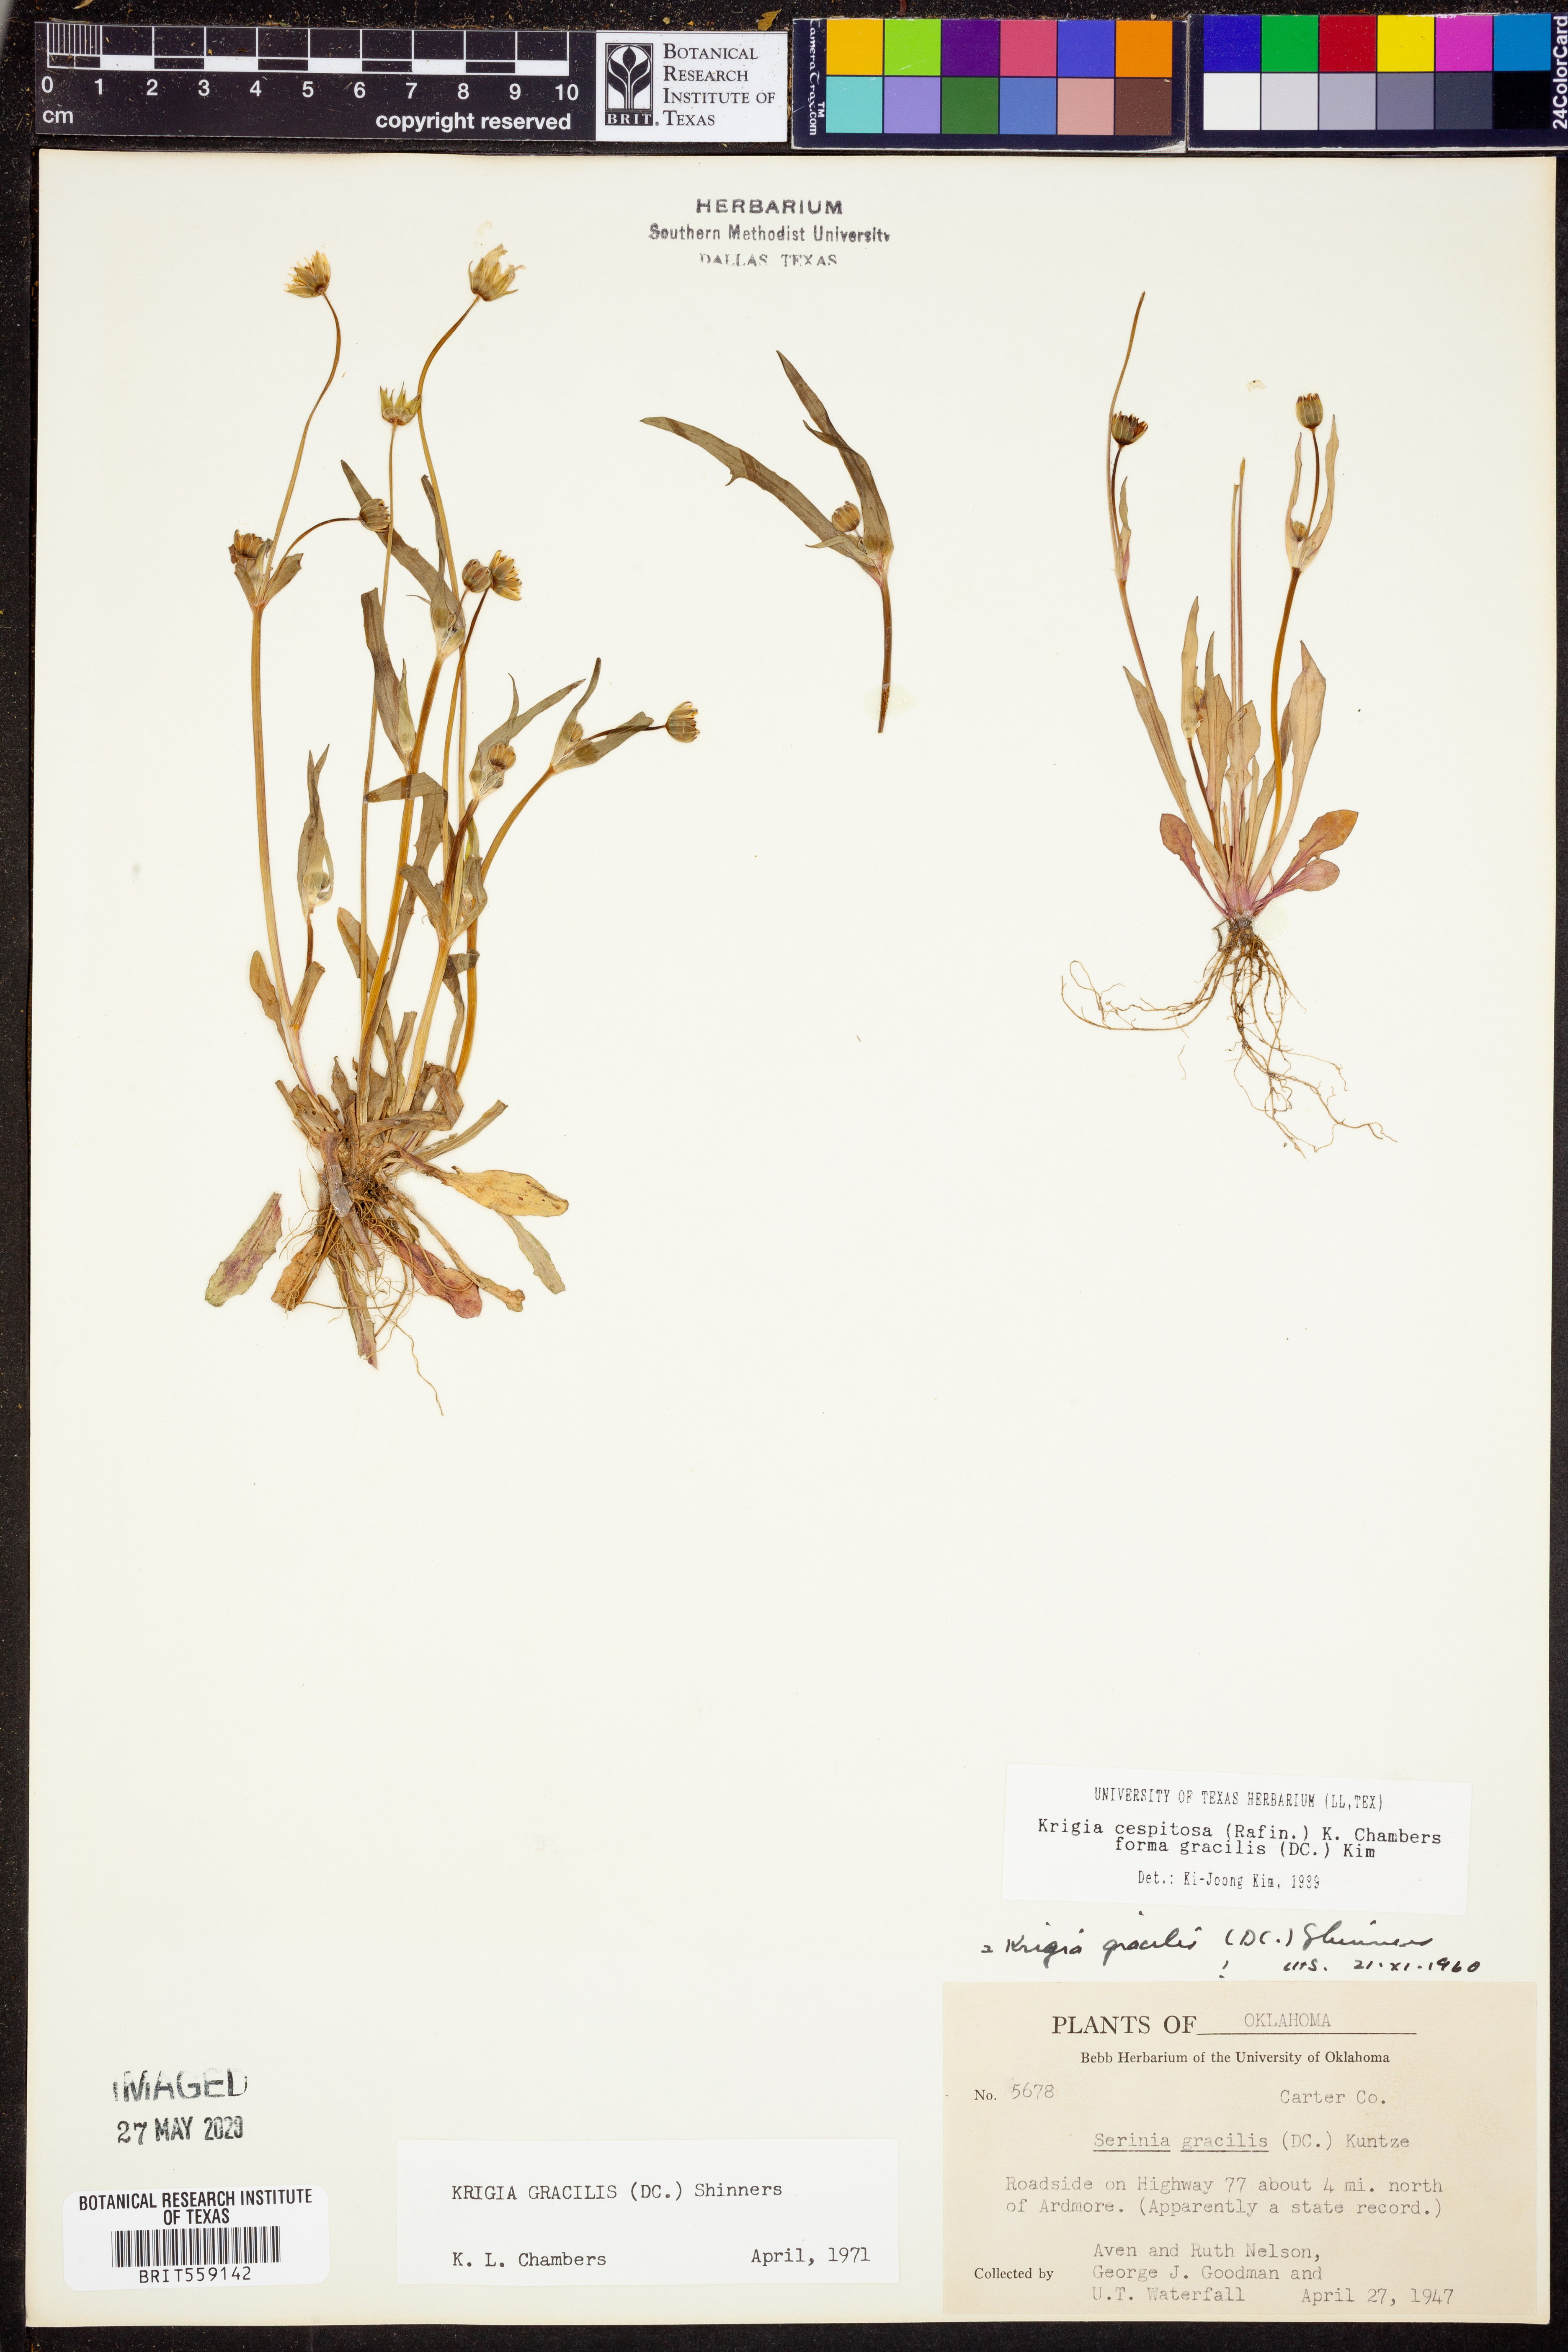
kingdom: Plantae
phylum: Tracheophyta
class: Magnoliopsida
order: Asterales
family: Asteraceae
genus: Krigia
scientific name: Krigia cespitosa
